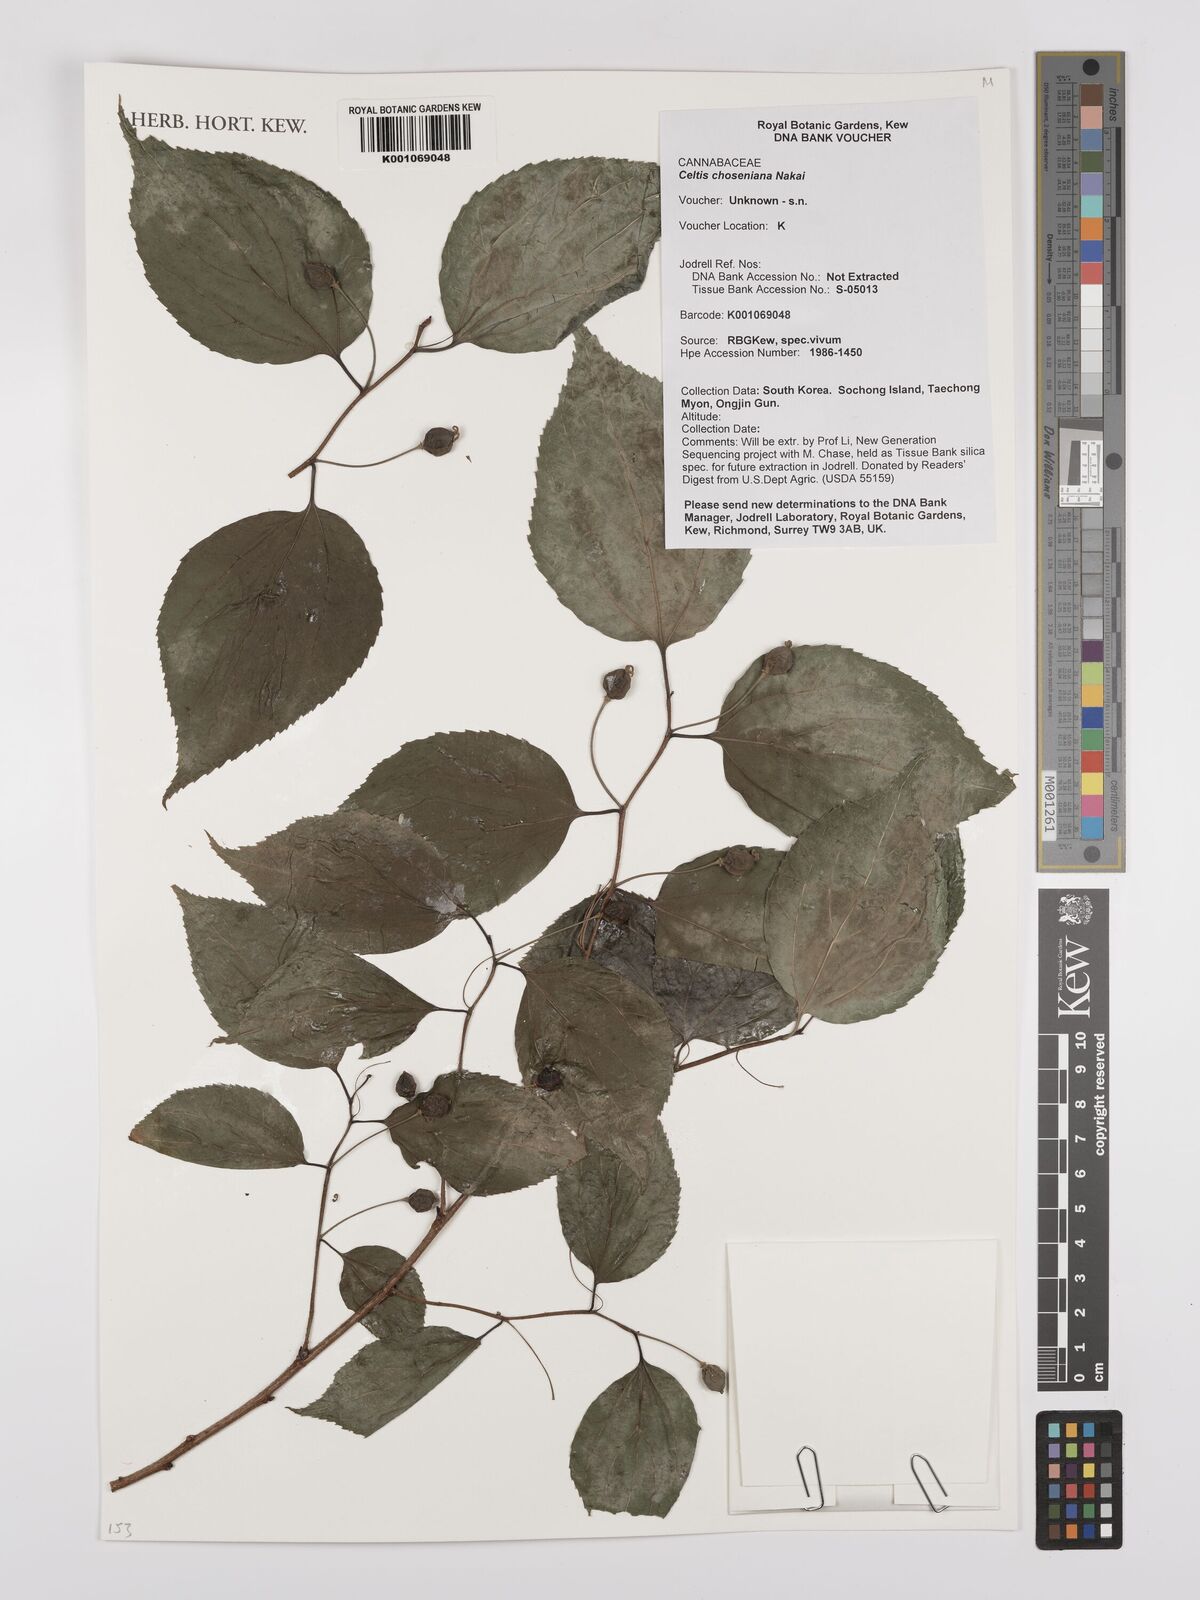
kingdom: Plantae
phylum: Tracheophyta
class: Magnoliopsida
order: Rosales
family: Cannabaceae
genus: Celtis
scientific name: Celtis jessoensis
